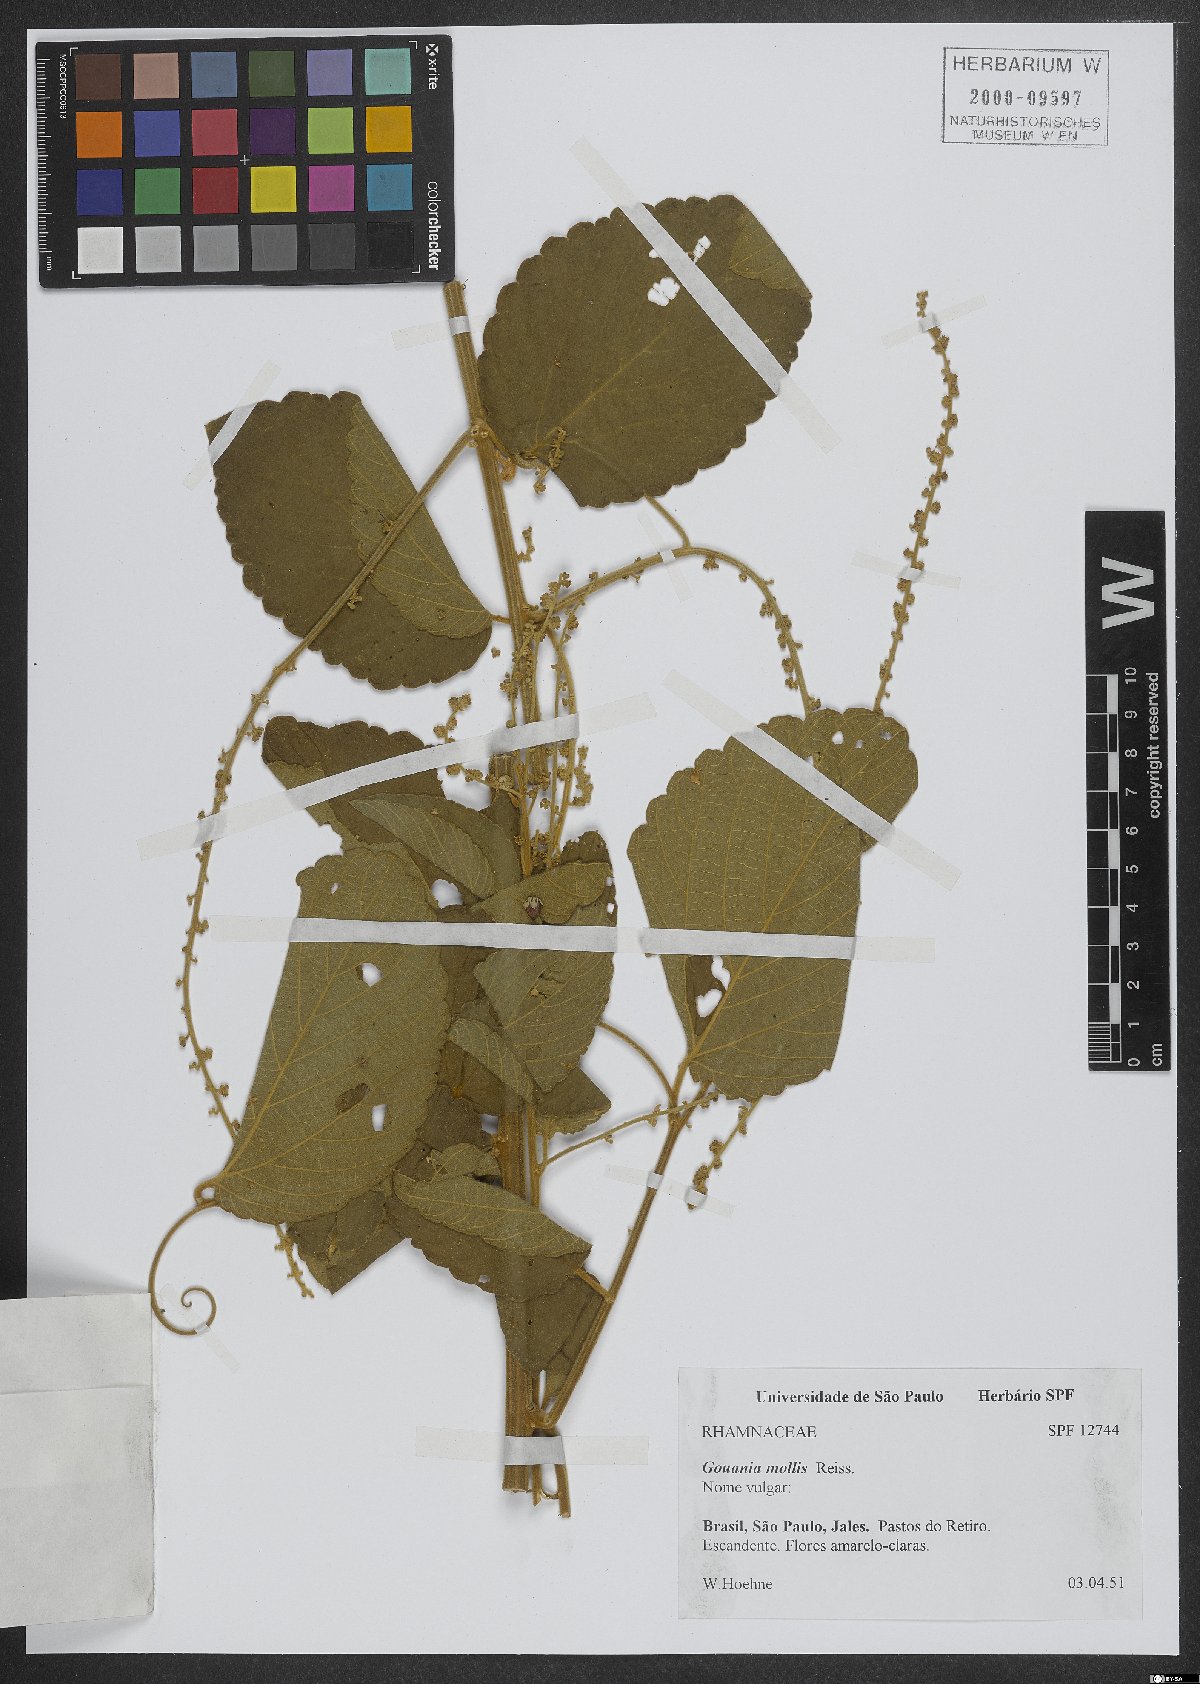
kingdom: Plantae
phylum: Tracheophyta
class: Magnoliopsida
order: Rosales
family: Rhamnaceae
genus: Gouania
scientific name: Gouania latifolia
